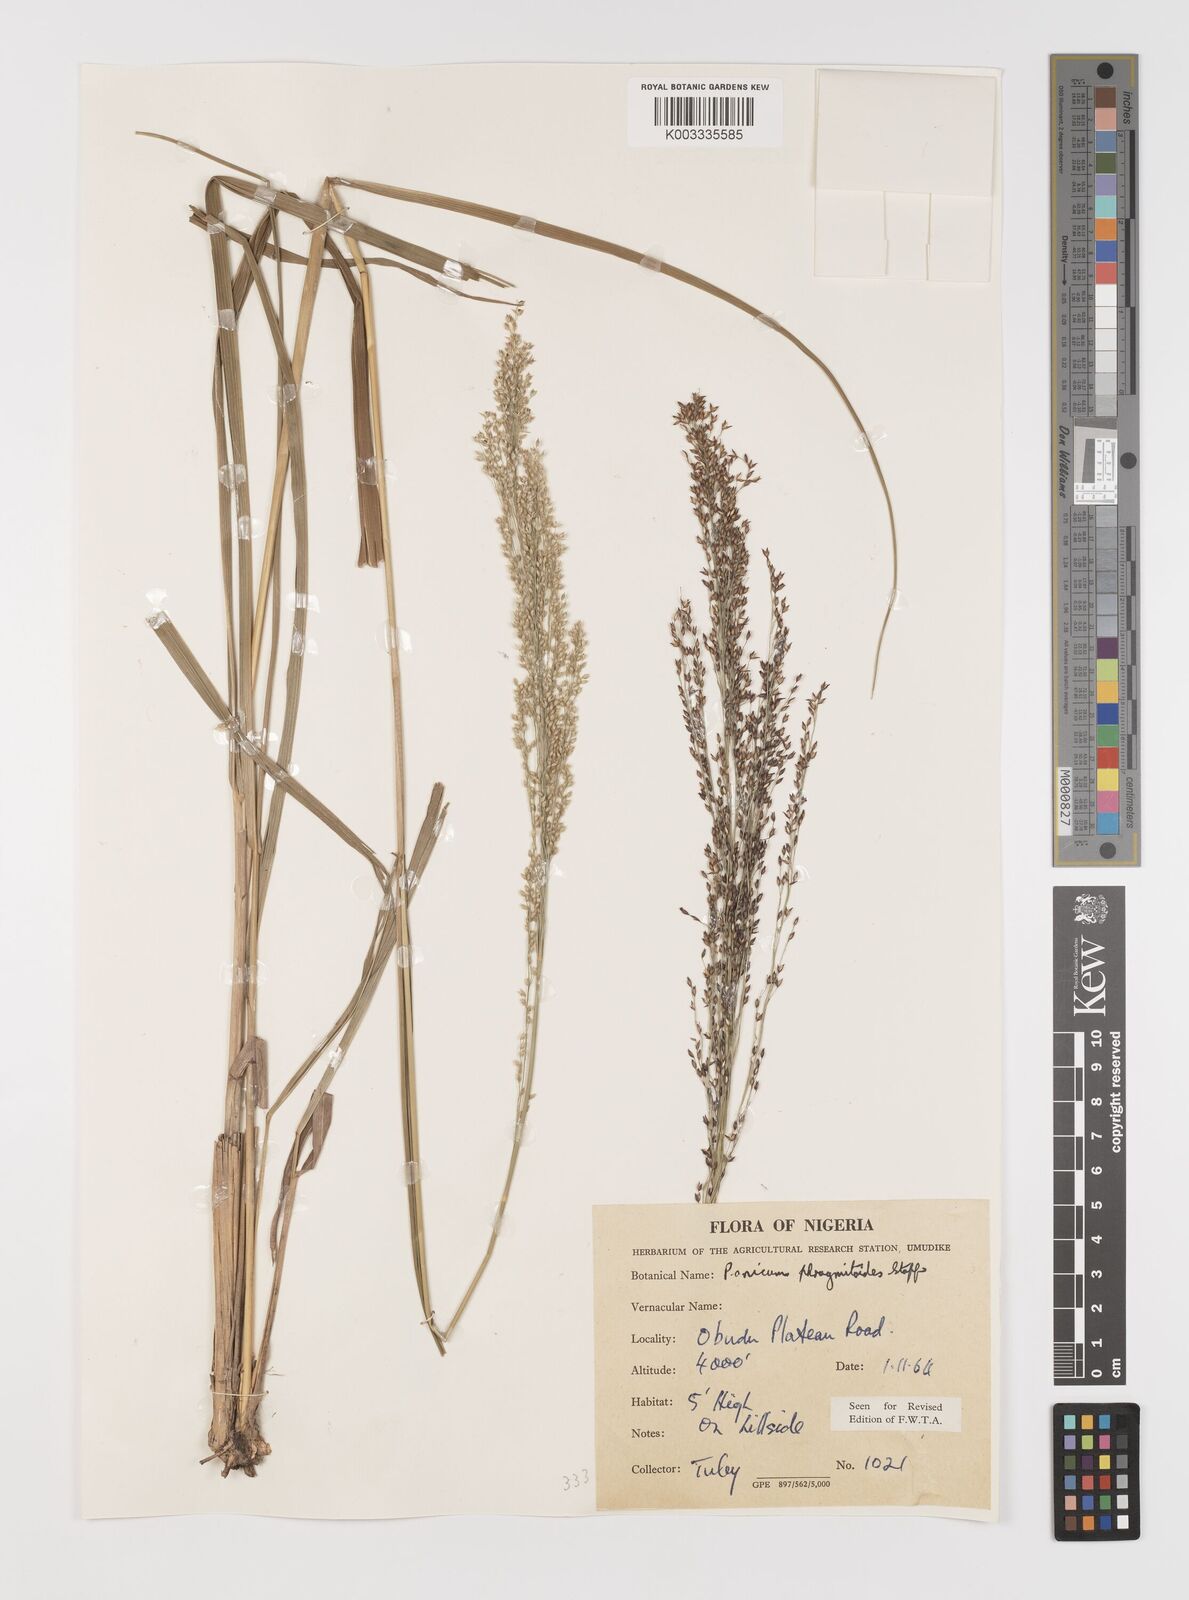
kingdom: Plantae
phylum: Tracheophyta
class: Liliopsida
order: Poales
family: Poaceae
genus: Panicum
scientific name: Panicum phragmitoides
